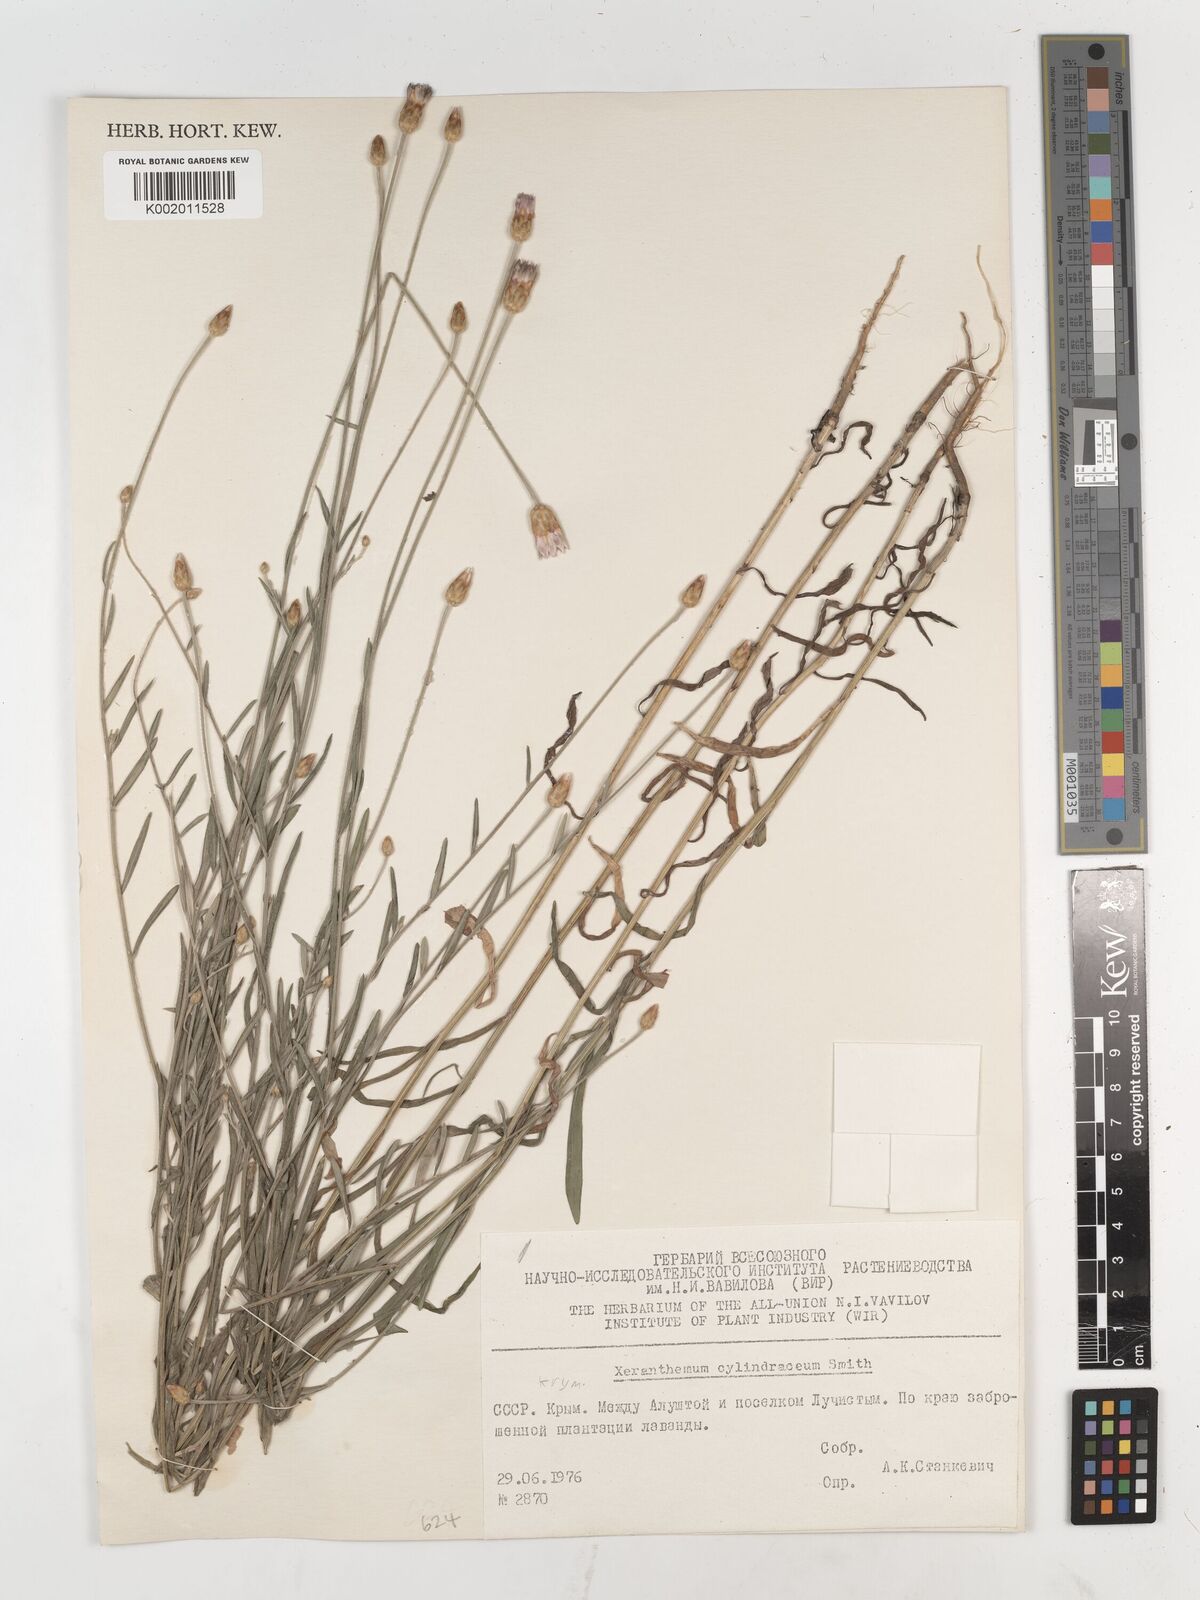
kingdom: Plantae
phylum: Tracheophyta
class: Magnoliopsida
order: Asterales
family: Asteraceae
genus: Xeranthemum
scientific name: Xeranthemum cylindraceum
